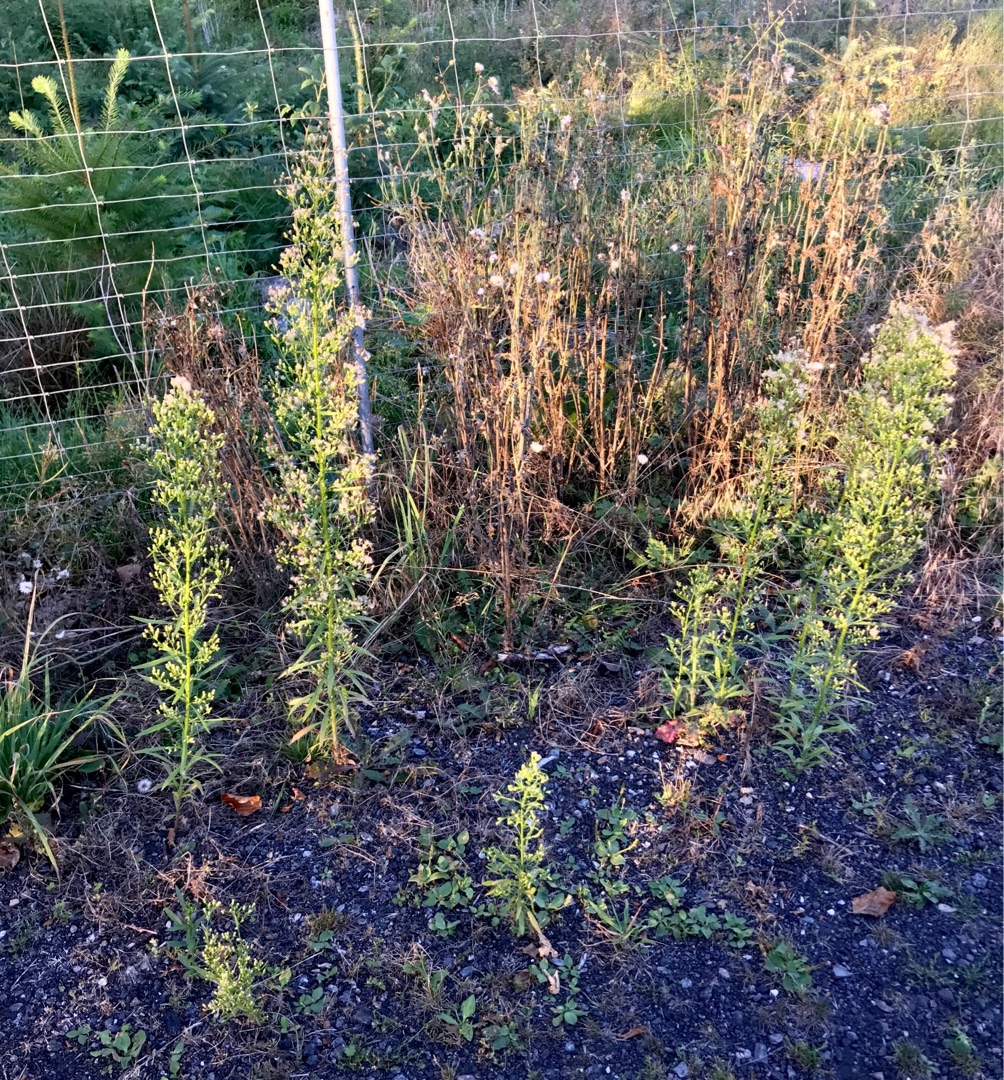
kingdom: Plantae
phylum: Tracheophyta
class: Magnoliopsida
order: Asterales
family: Asteraceae
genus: Erigeron
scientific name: Erigeron canadensis
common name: Kanadisk bakkestjerne
